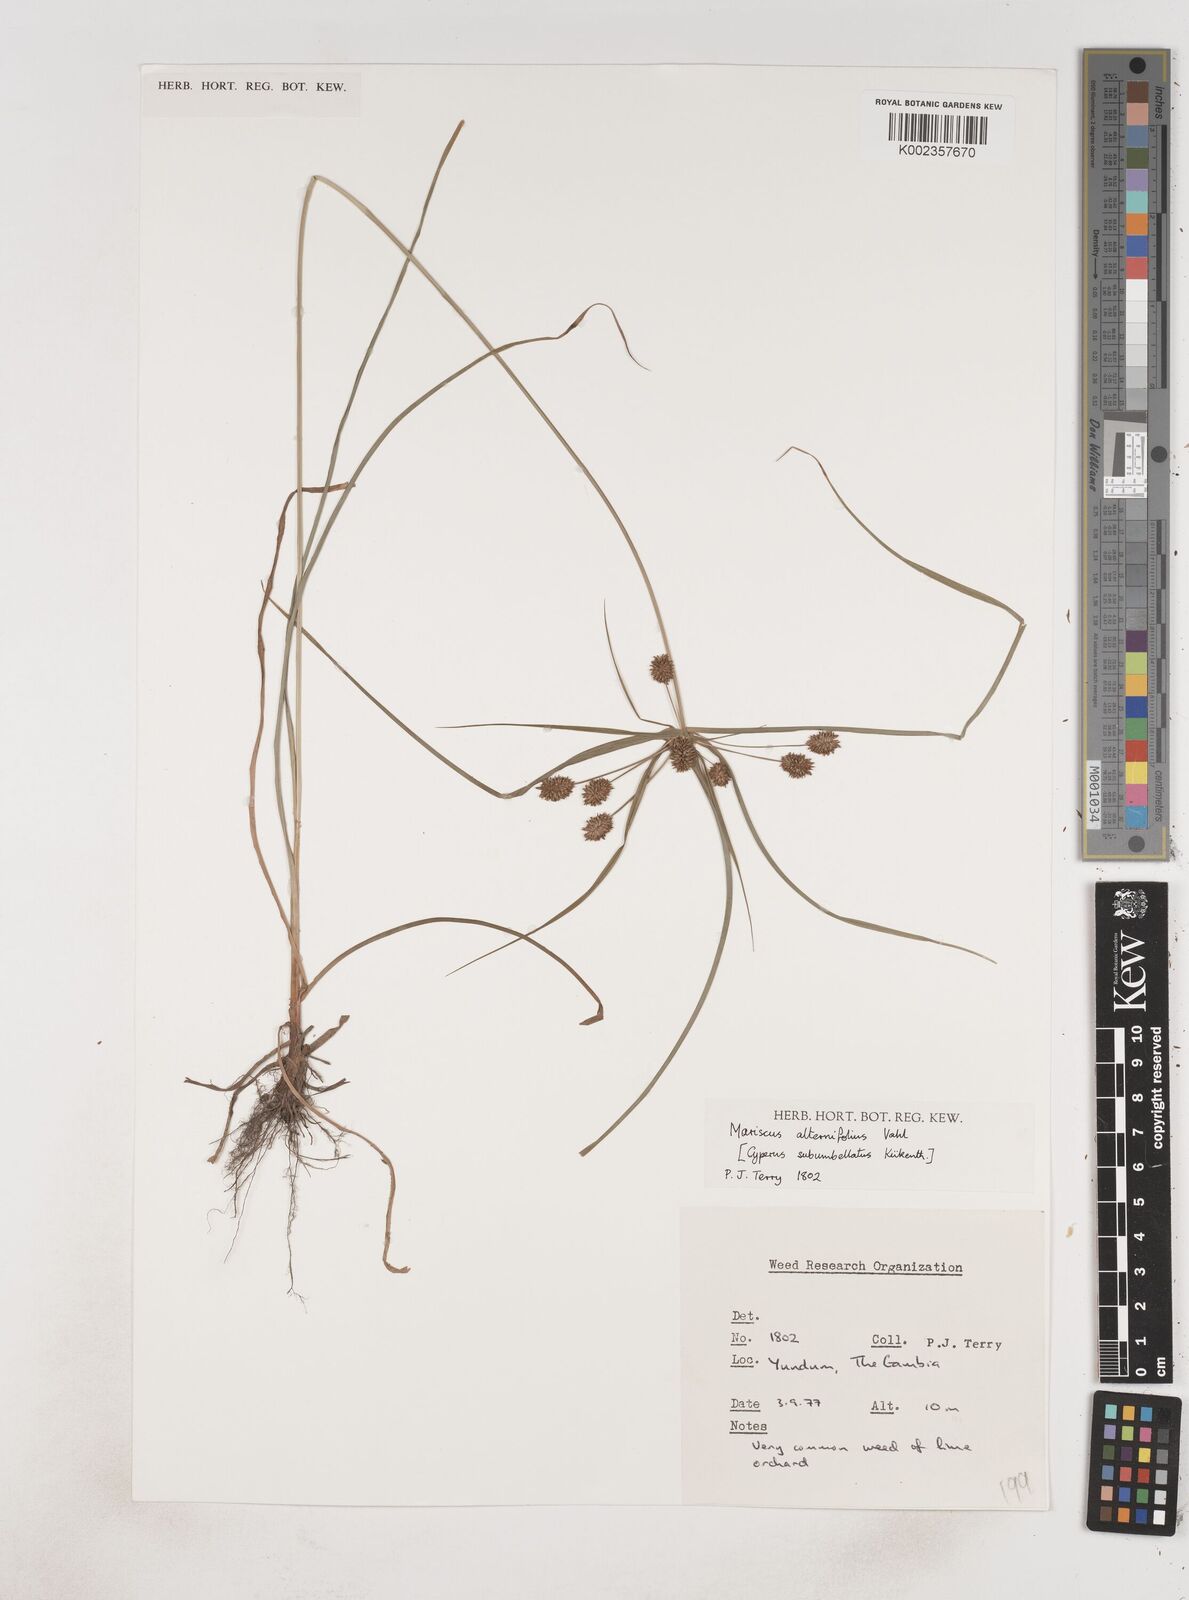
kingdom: Plantae
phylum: Tracheophyta
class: Liliopsida
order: Poales
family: Cyperaceae
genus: Cyperus
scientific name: Cyperus sublimis
